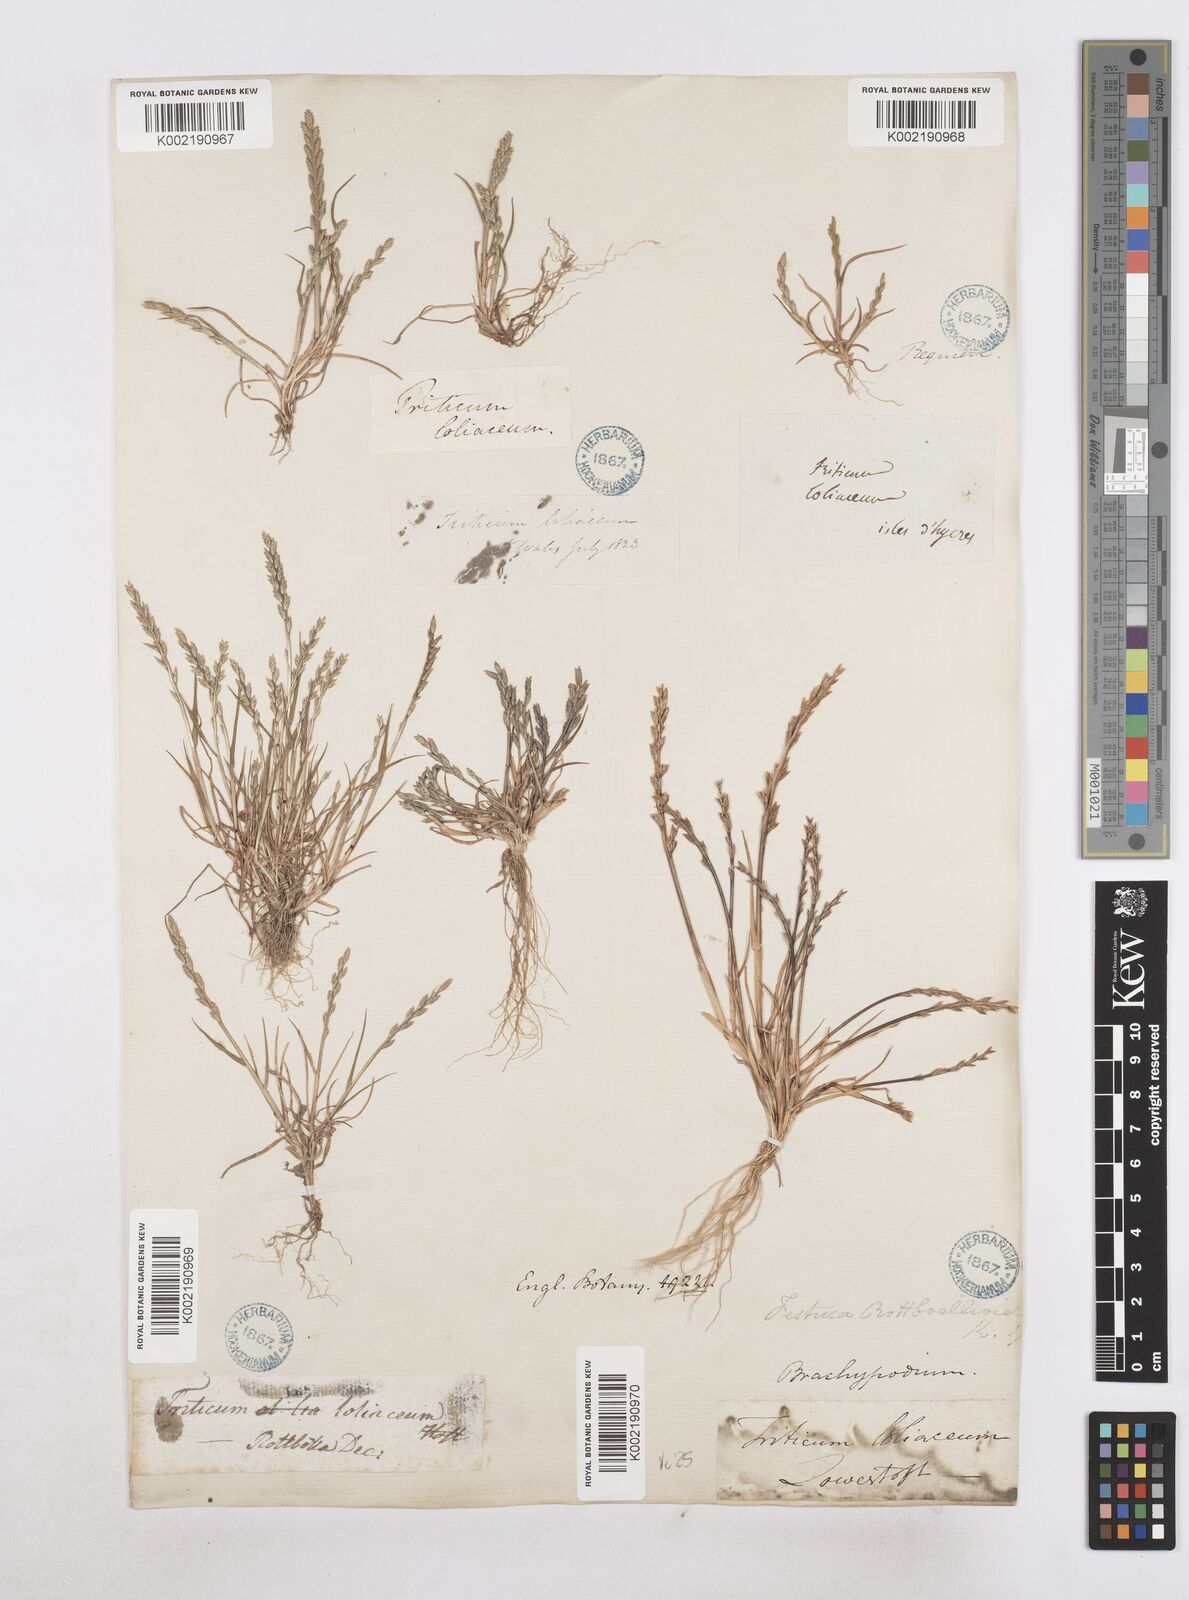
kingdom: Plantae
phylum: Tracheophyta
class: Liliopsida
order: Poales
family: Poaceae
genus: Catapodium
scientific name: Catapodium marinum
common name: Sea fern-grass
